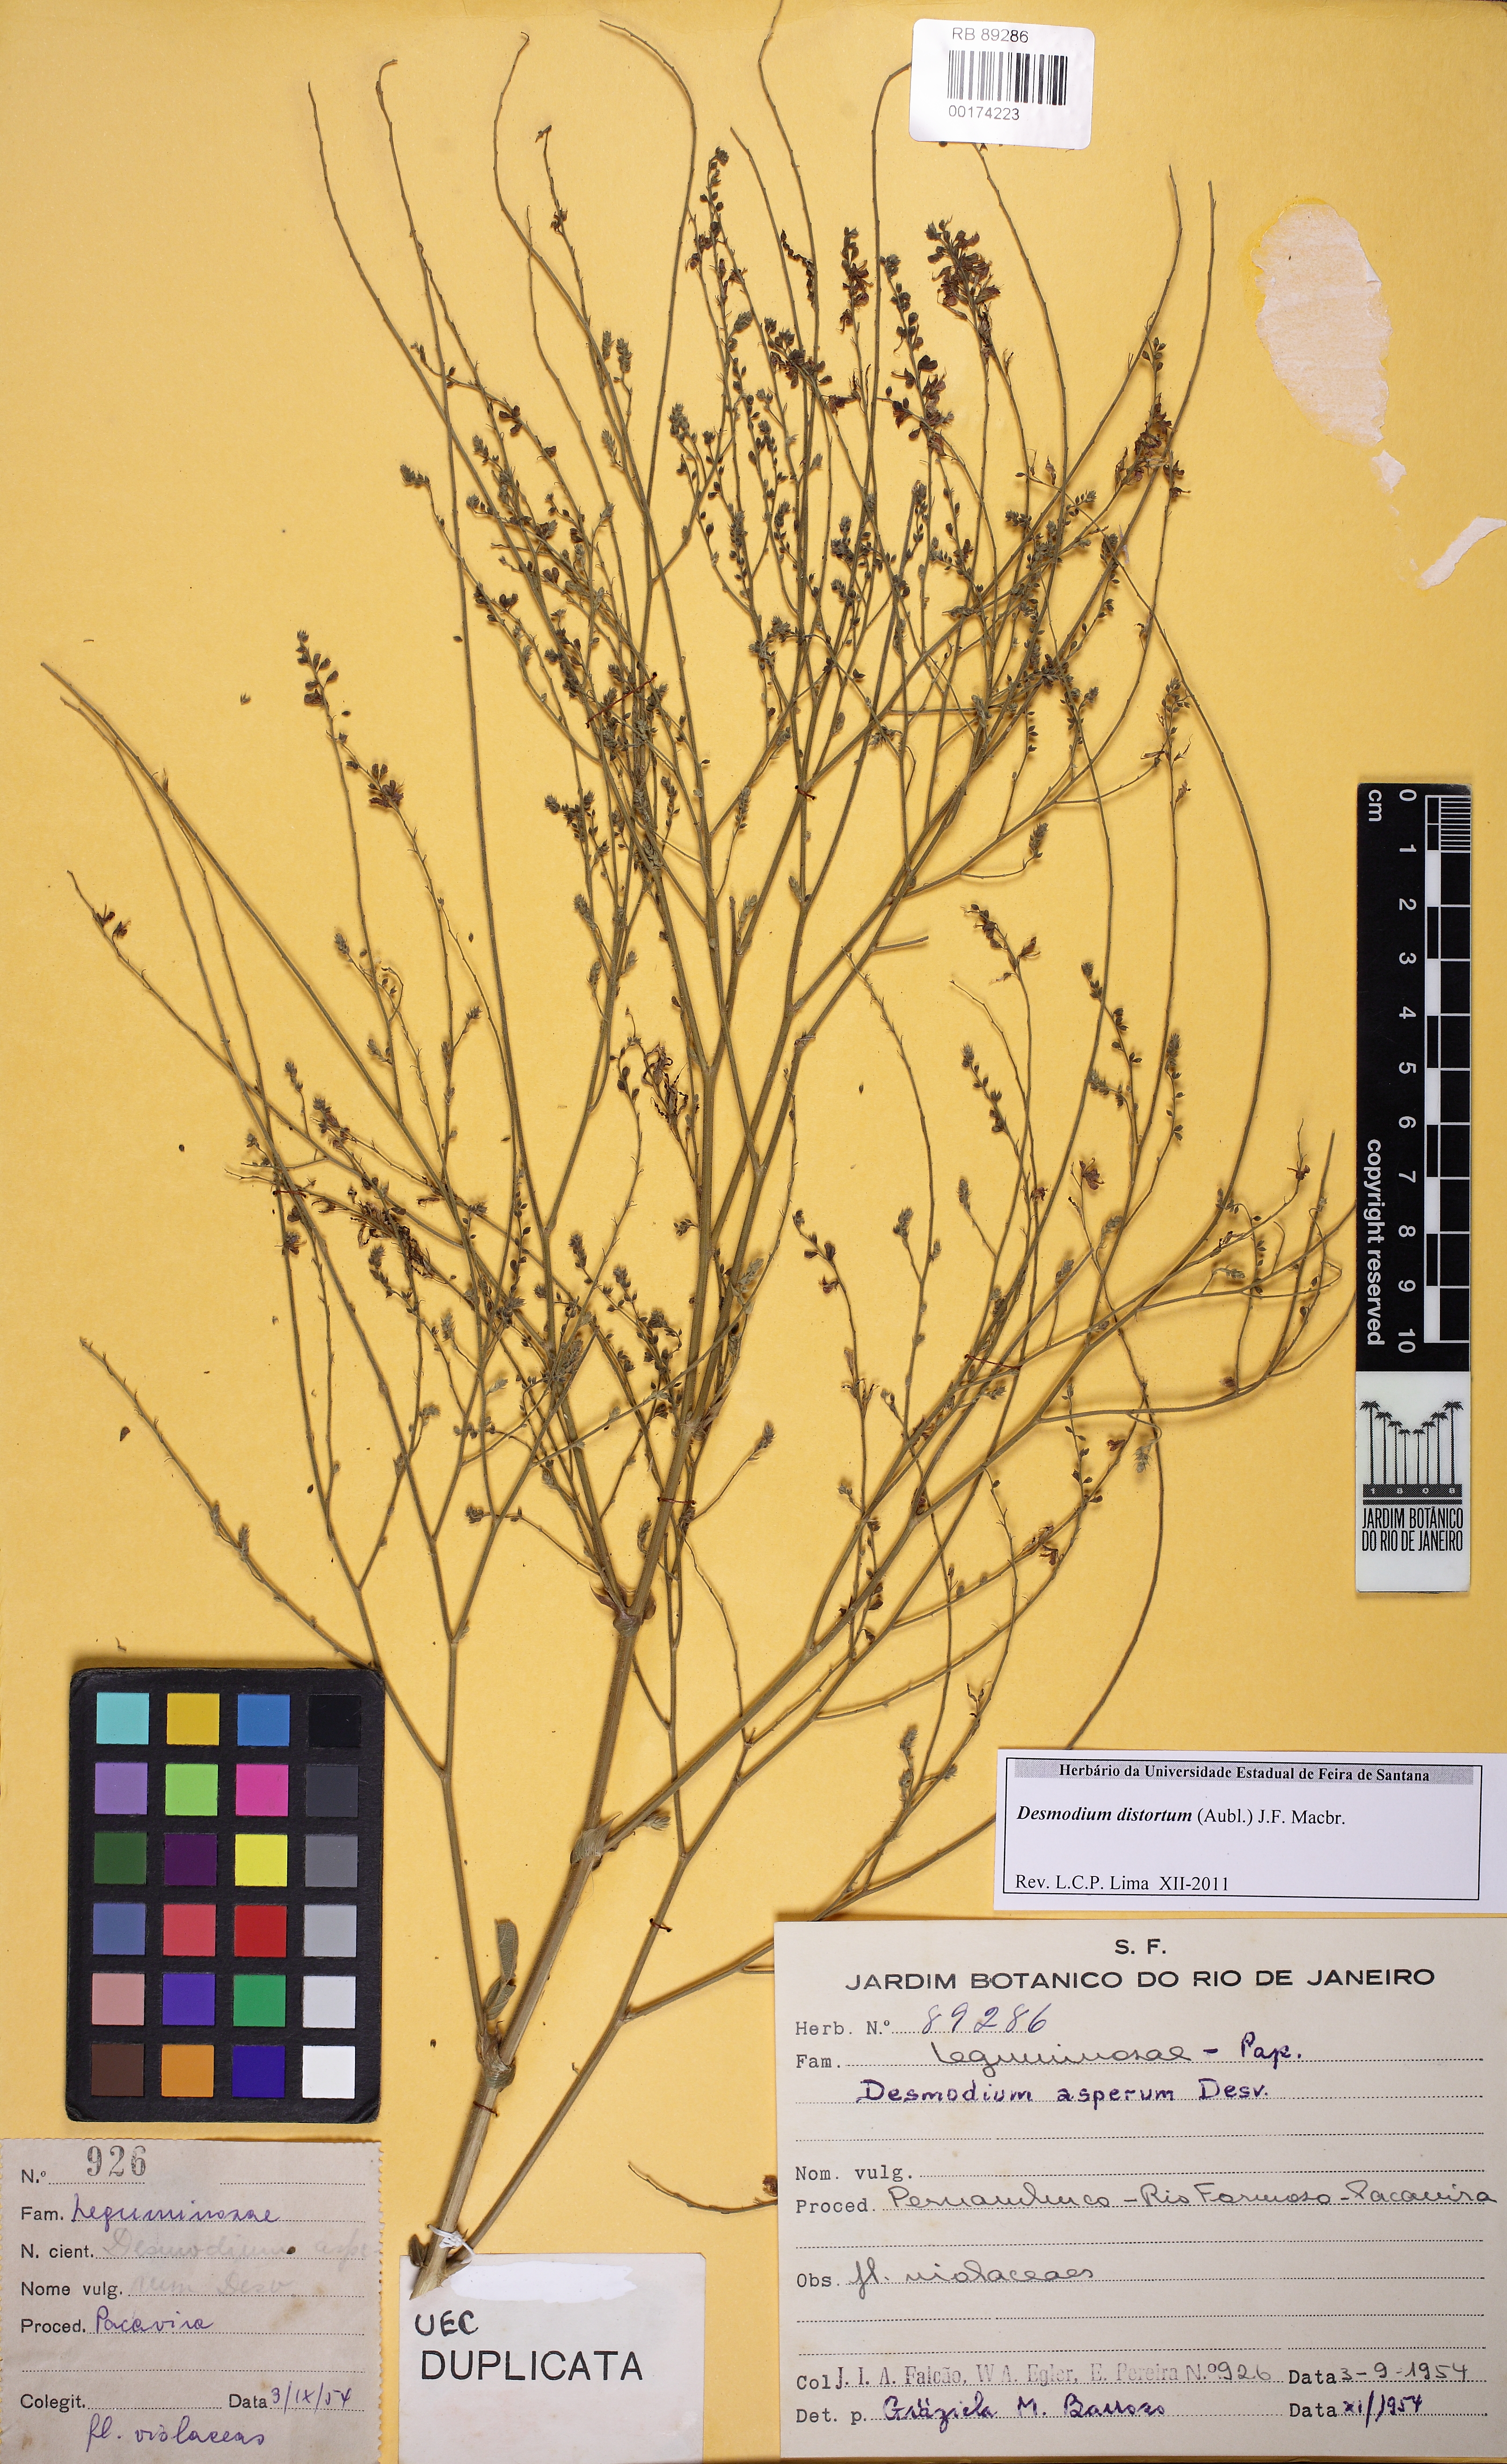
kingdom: Plantae
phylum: Tracheophyta
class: Magnoliopsida
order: Fabales
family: Fabaceae
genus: Desmodium
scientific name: Desmodium distortum
